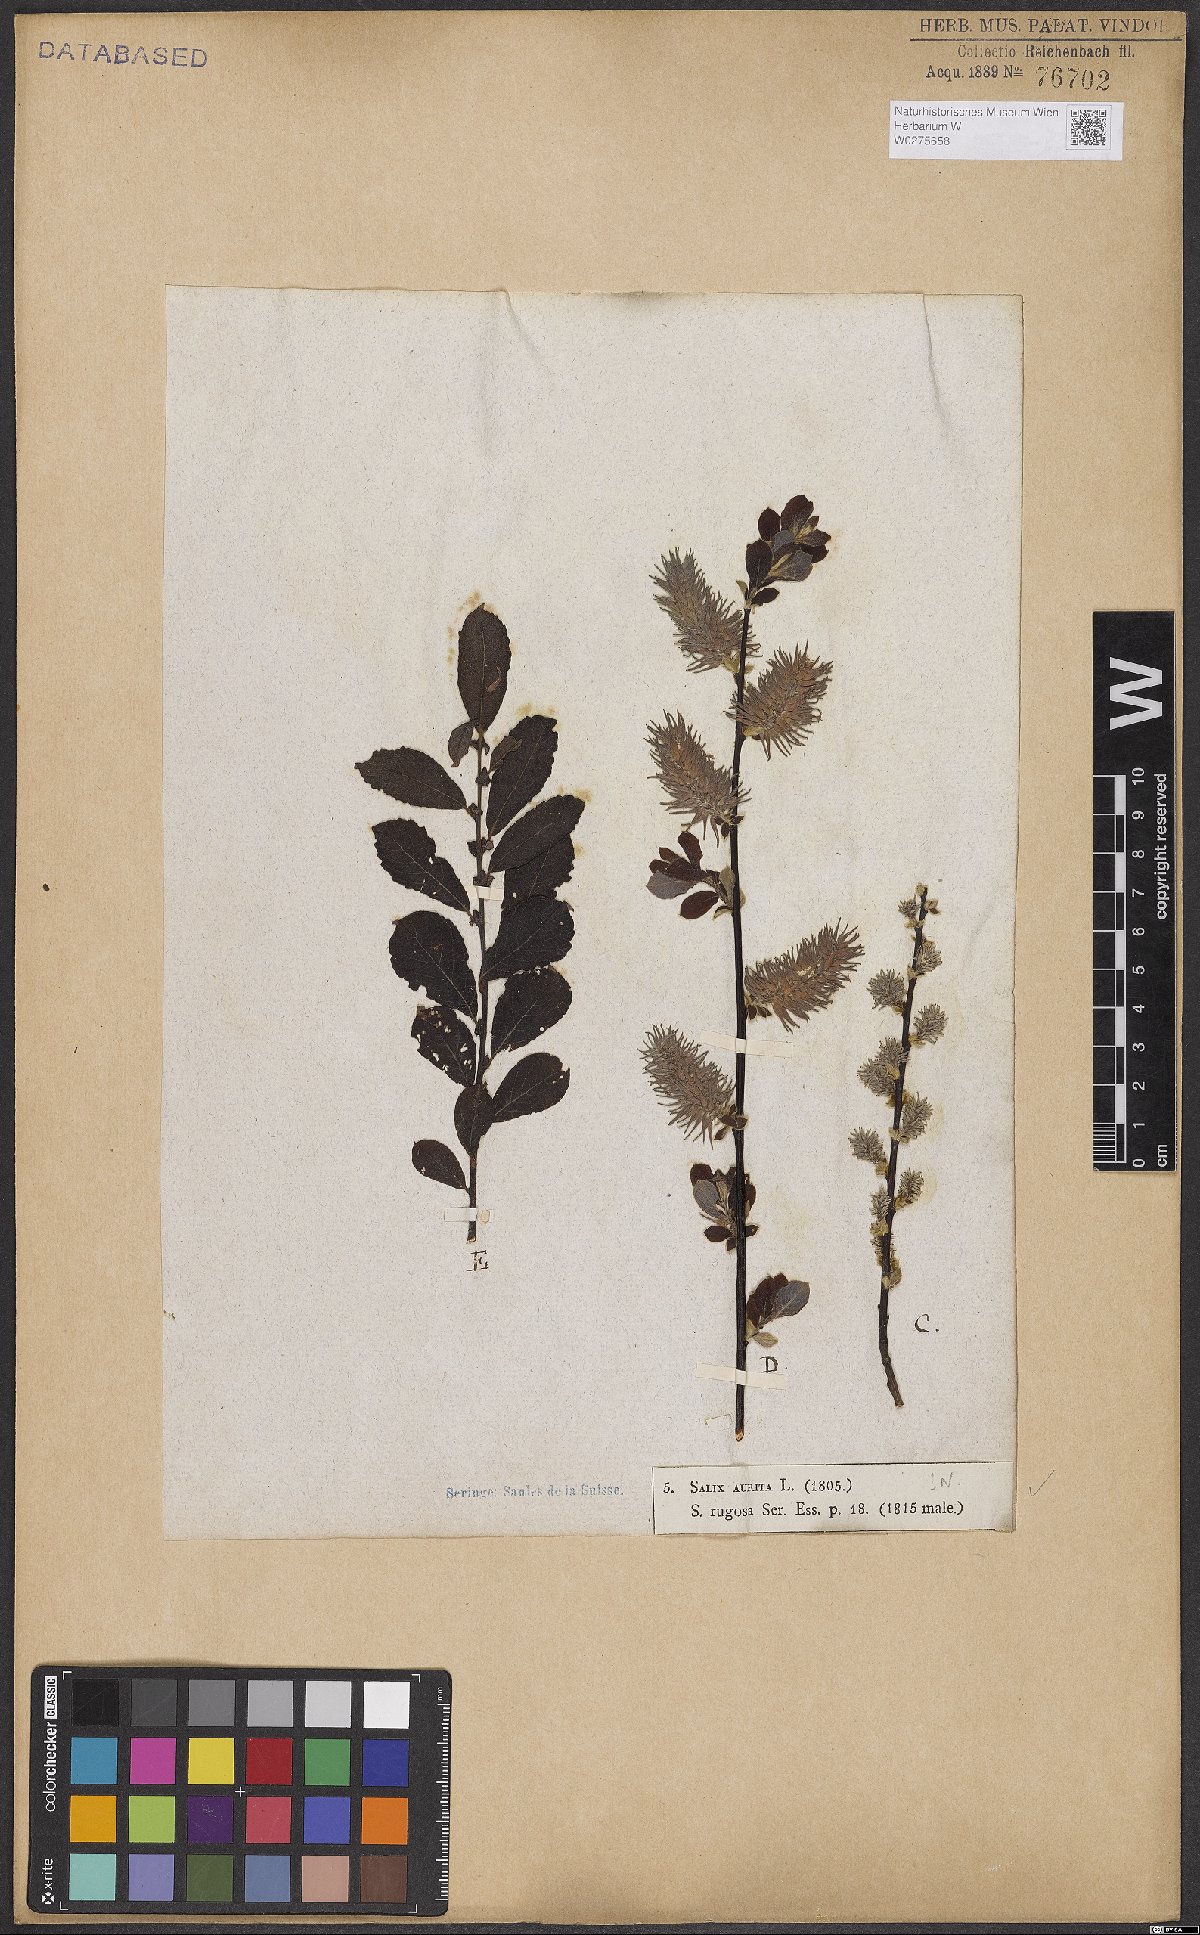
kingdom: Plantae
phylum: Tracheophyta
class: Magnoliopsida
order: Malpighiales
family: Salicaceae
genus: Salix
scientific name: Salix aurita
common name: Eared willow
